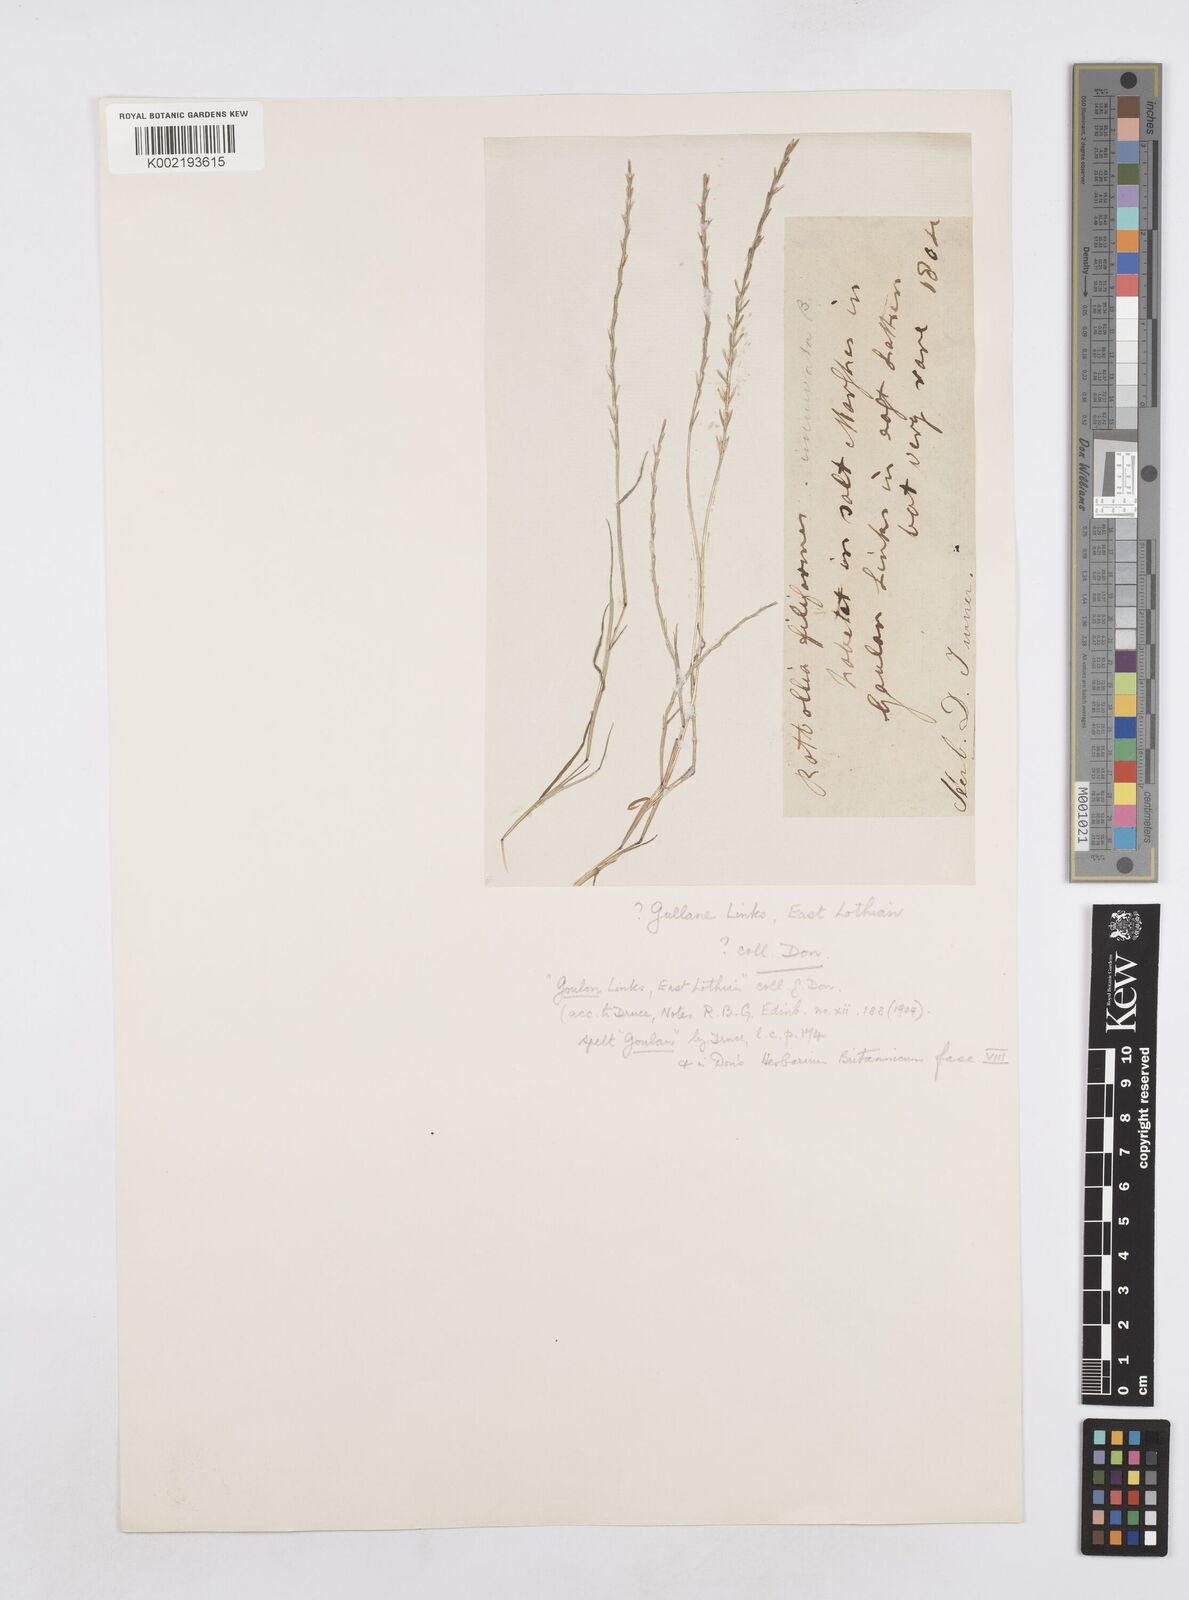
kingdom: Plantae
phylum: Tracheophyta
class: Liliopsida
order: Poales
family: Poaceae
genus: Parapholis
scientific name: Parapholis filiformis
